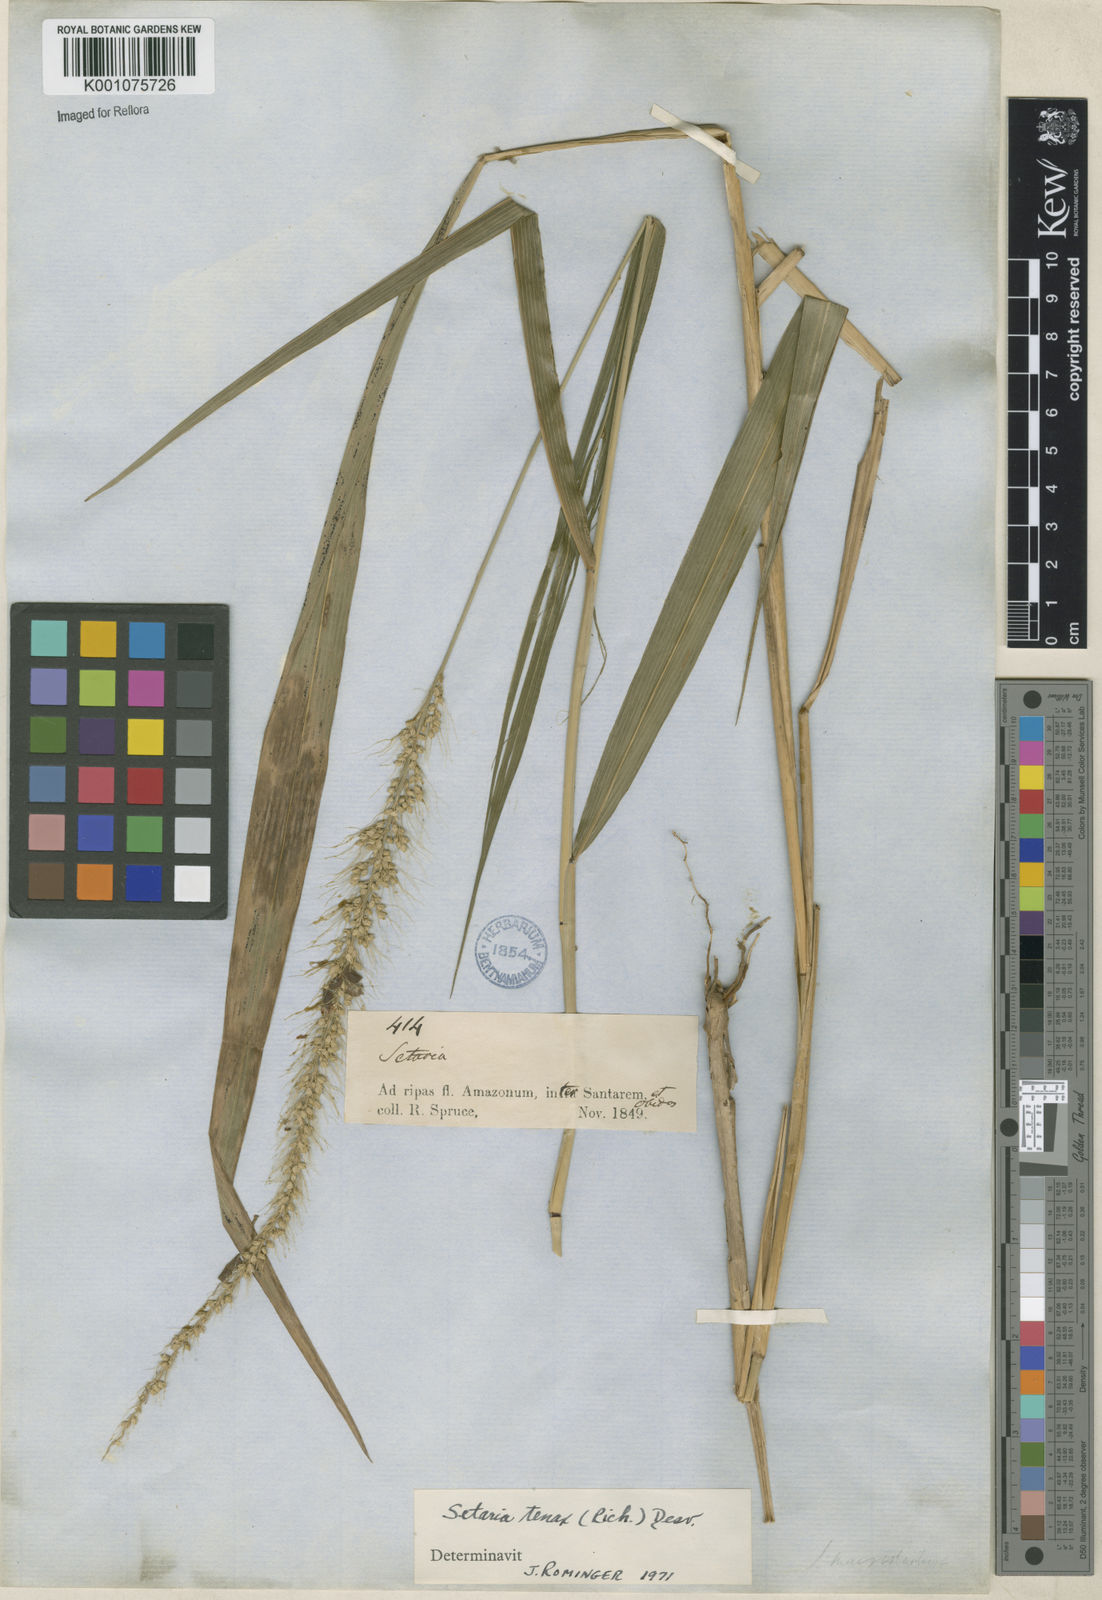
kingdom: Plantae
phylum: Tracheophyta
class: Liliopsida
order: Poales
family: Poaceae
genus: Setaria
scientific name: Setaria tenax
